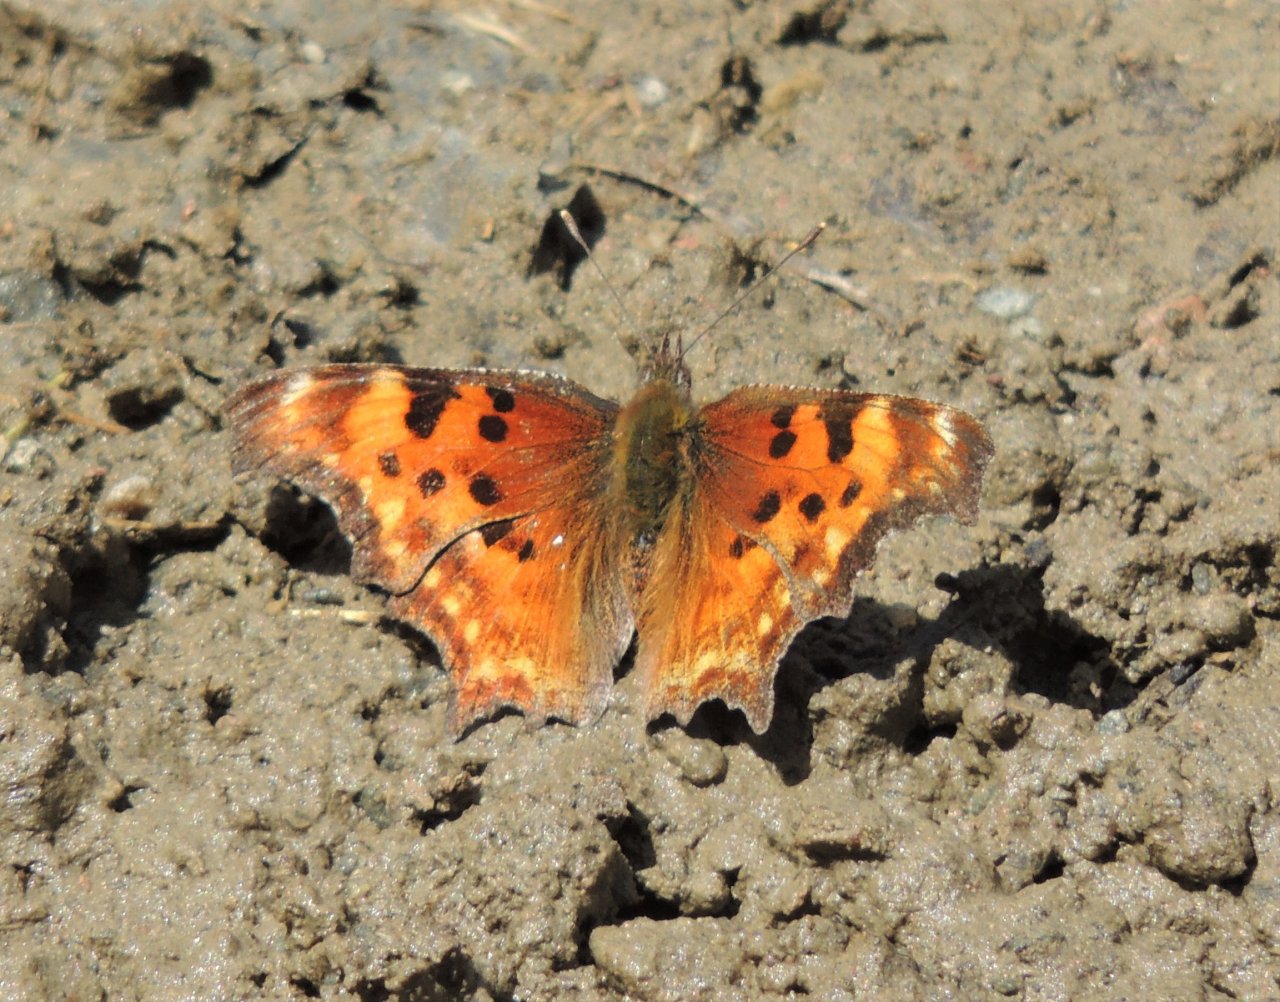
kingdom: Animalia
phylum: Arthropoda
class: Insecta
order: Lepidoptera
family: Nymphalidae
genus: Polygonia
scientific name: Polygonia gracilis
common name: Hoary Comma
